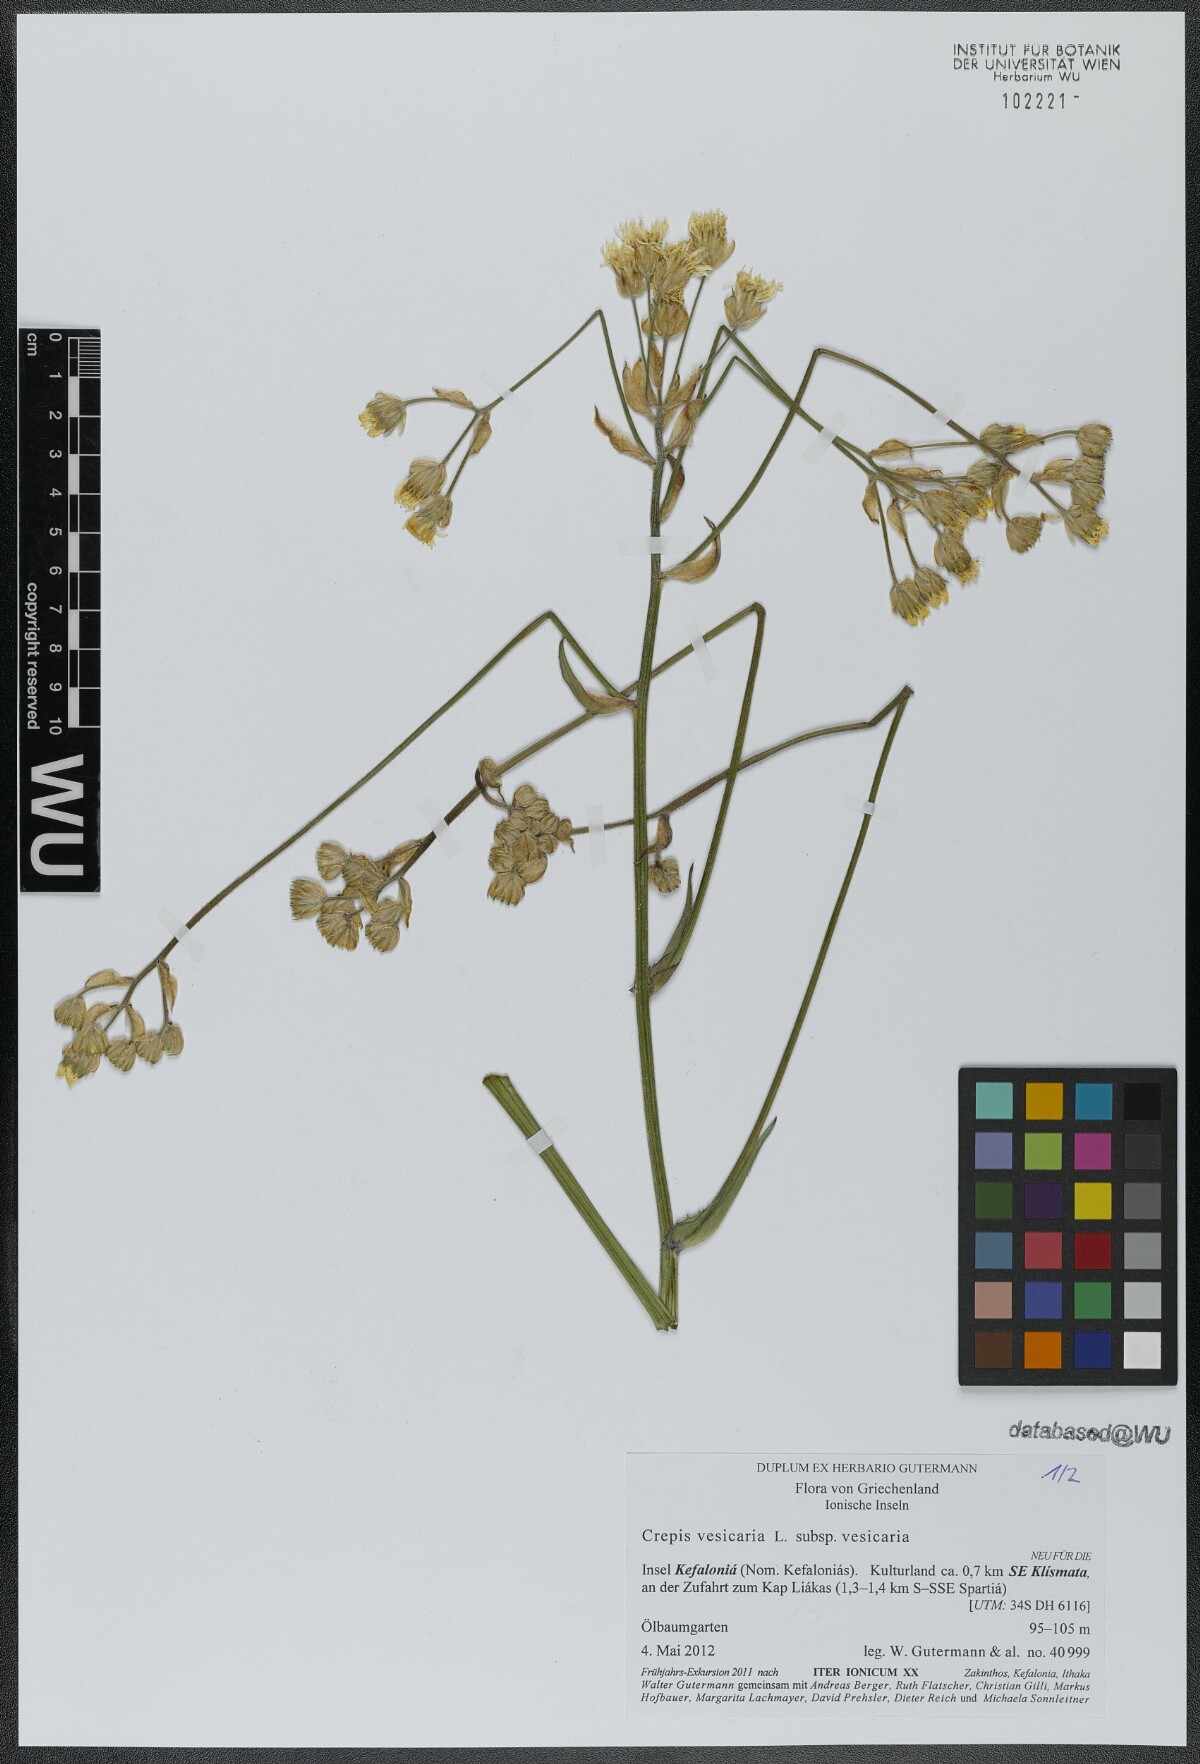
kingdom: Plantae
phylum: Tracheophyta
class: Magnoliopsida
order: Asterales
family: Asteraceae
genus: Crepis
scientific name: Crepis vesicaria
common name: Beaked hawksbeard
